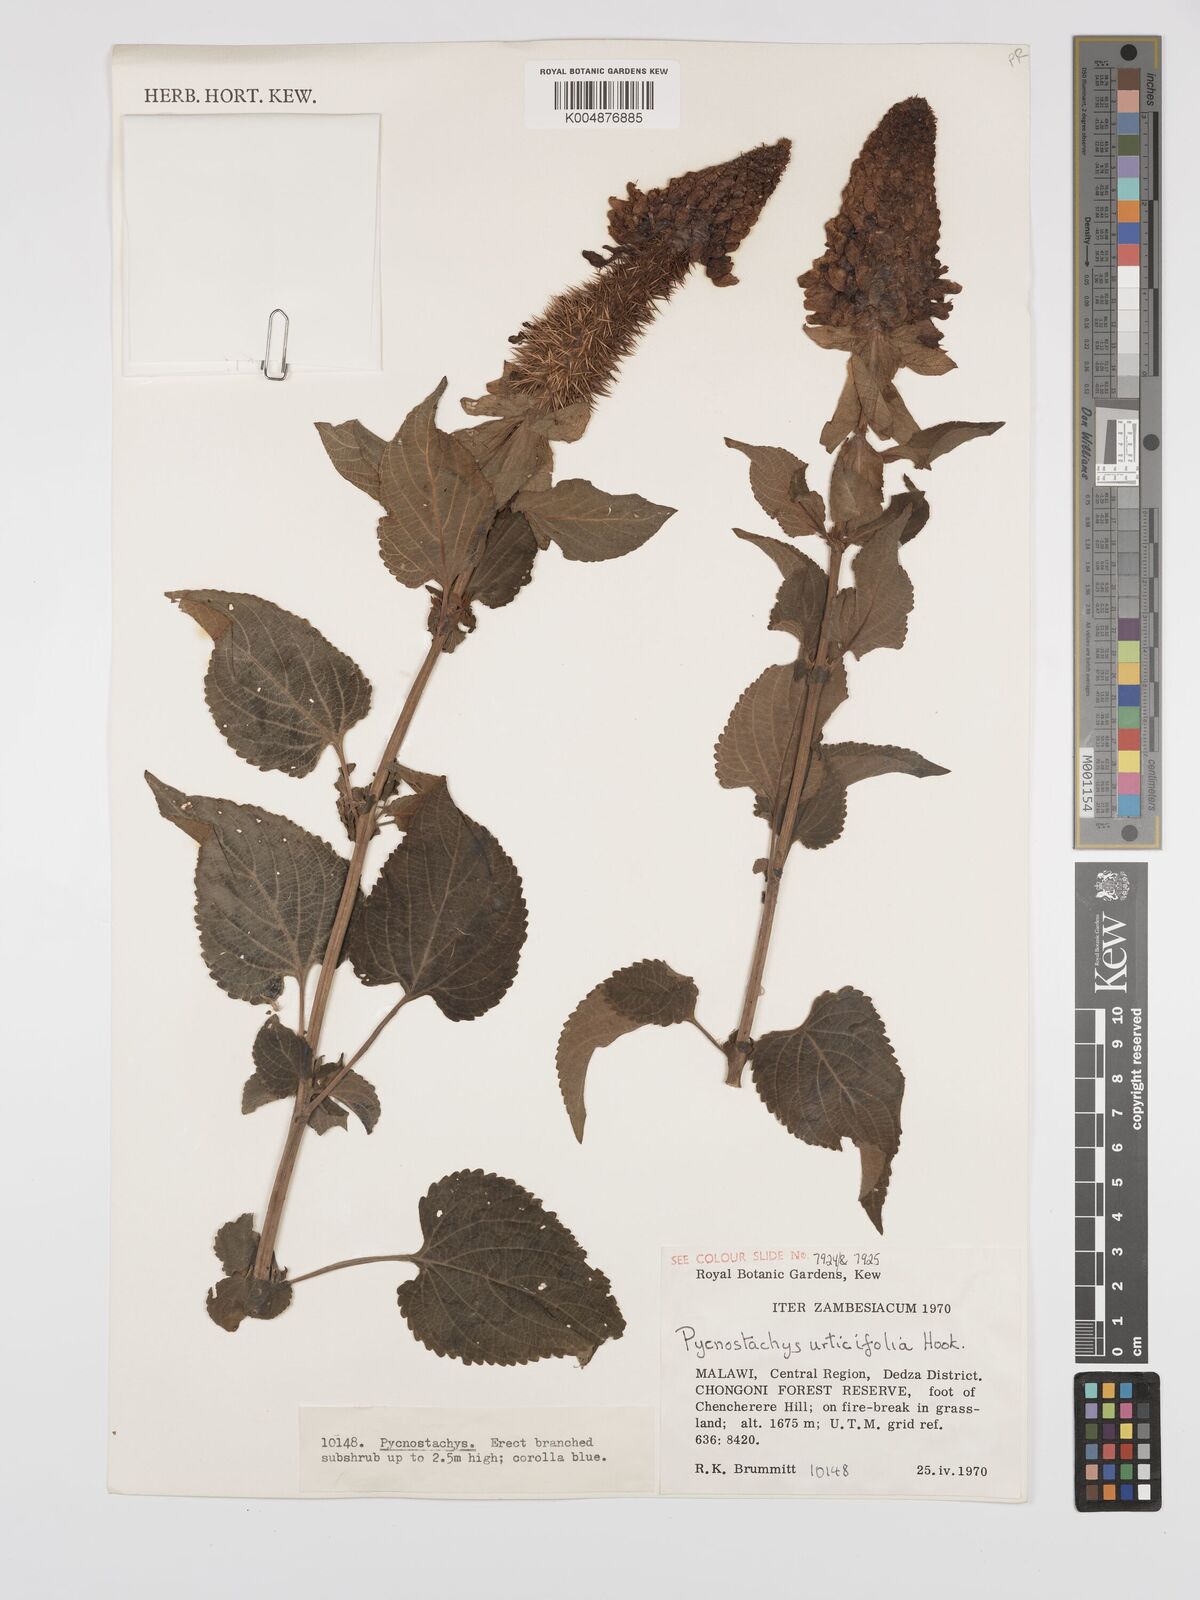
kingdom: Plantae
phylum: Tracheophyta
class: Magnoliopsida
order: Lamiales
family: Lamiaceae
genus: Coleus
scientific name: Coleus
